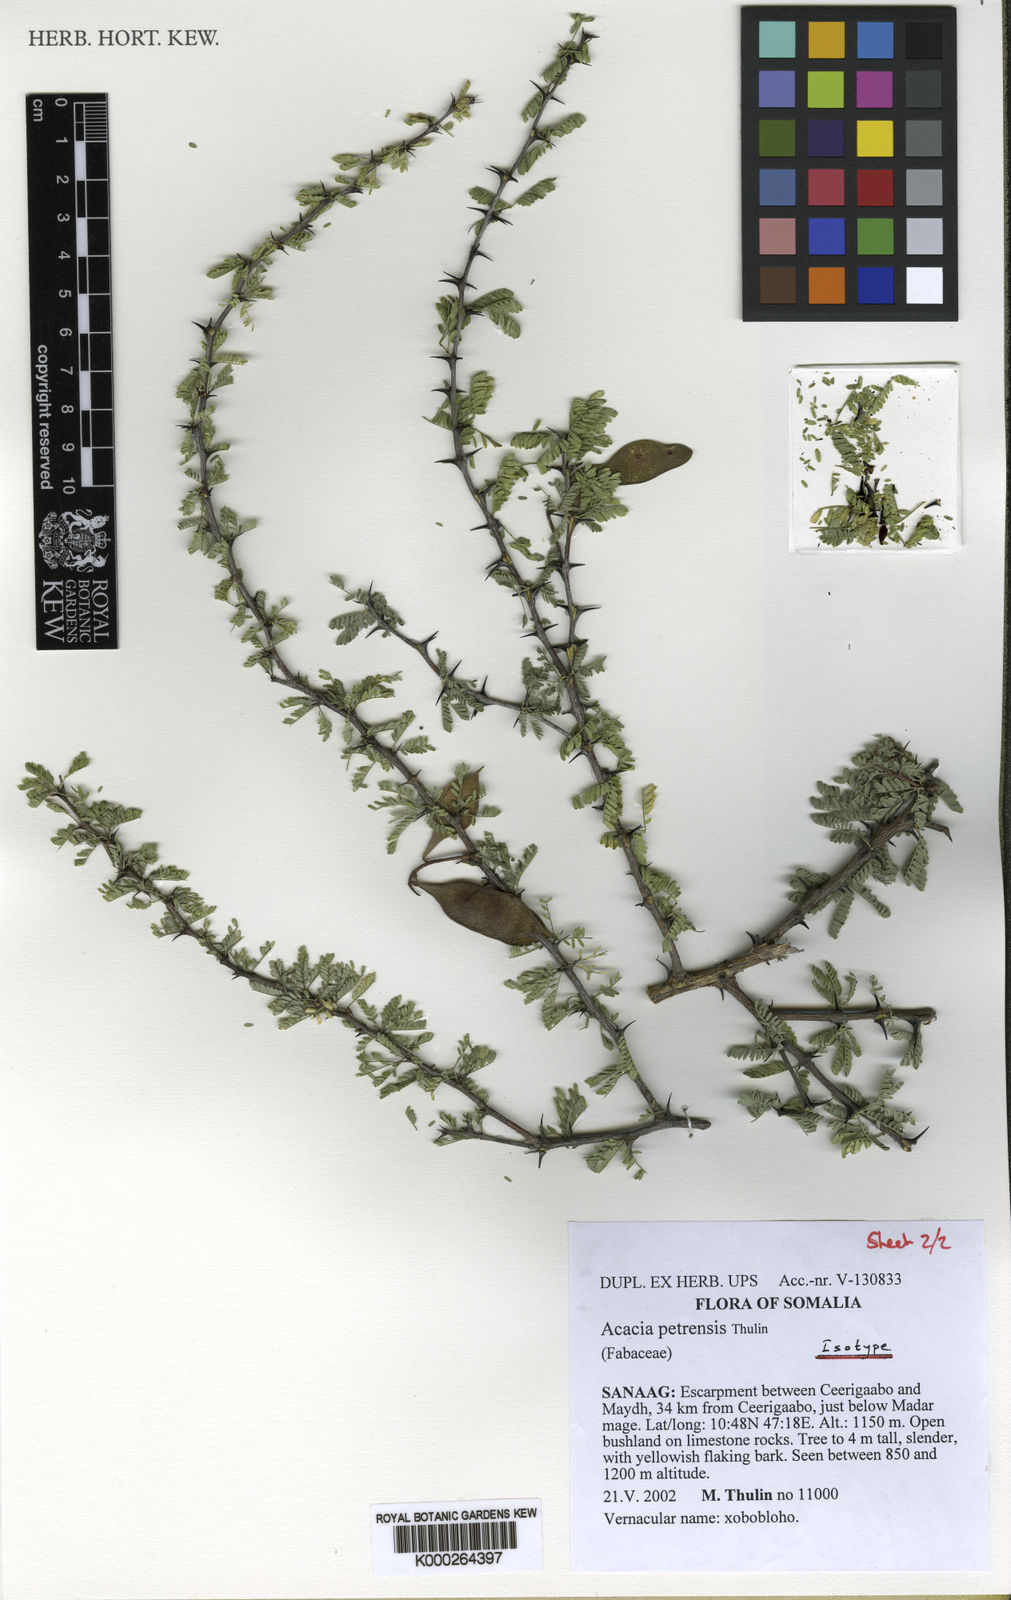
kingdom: Plantae
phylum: Tracheophyta
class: Magnoliopsida
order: Fabales
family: Fabaceae
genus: Senegalia
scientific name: Senegalia petrensis
